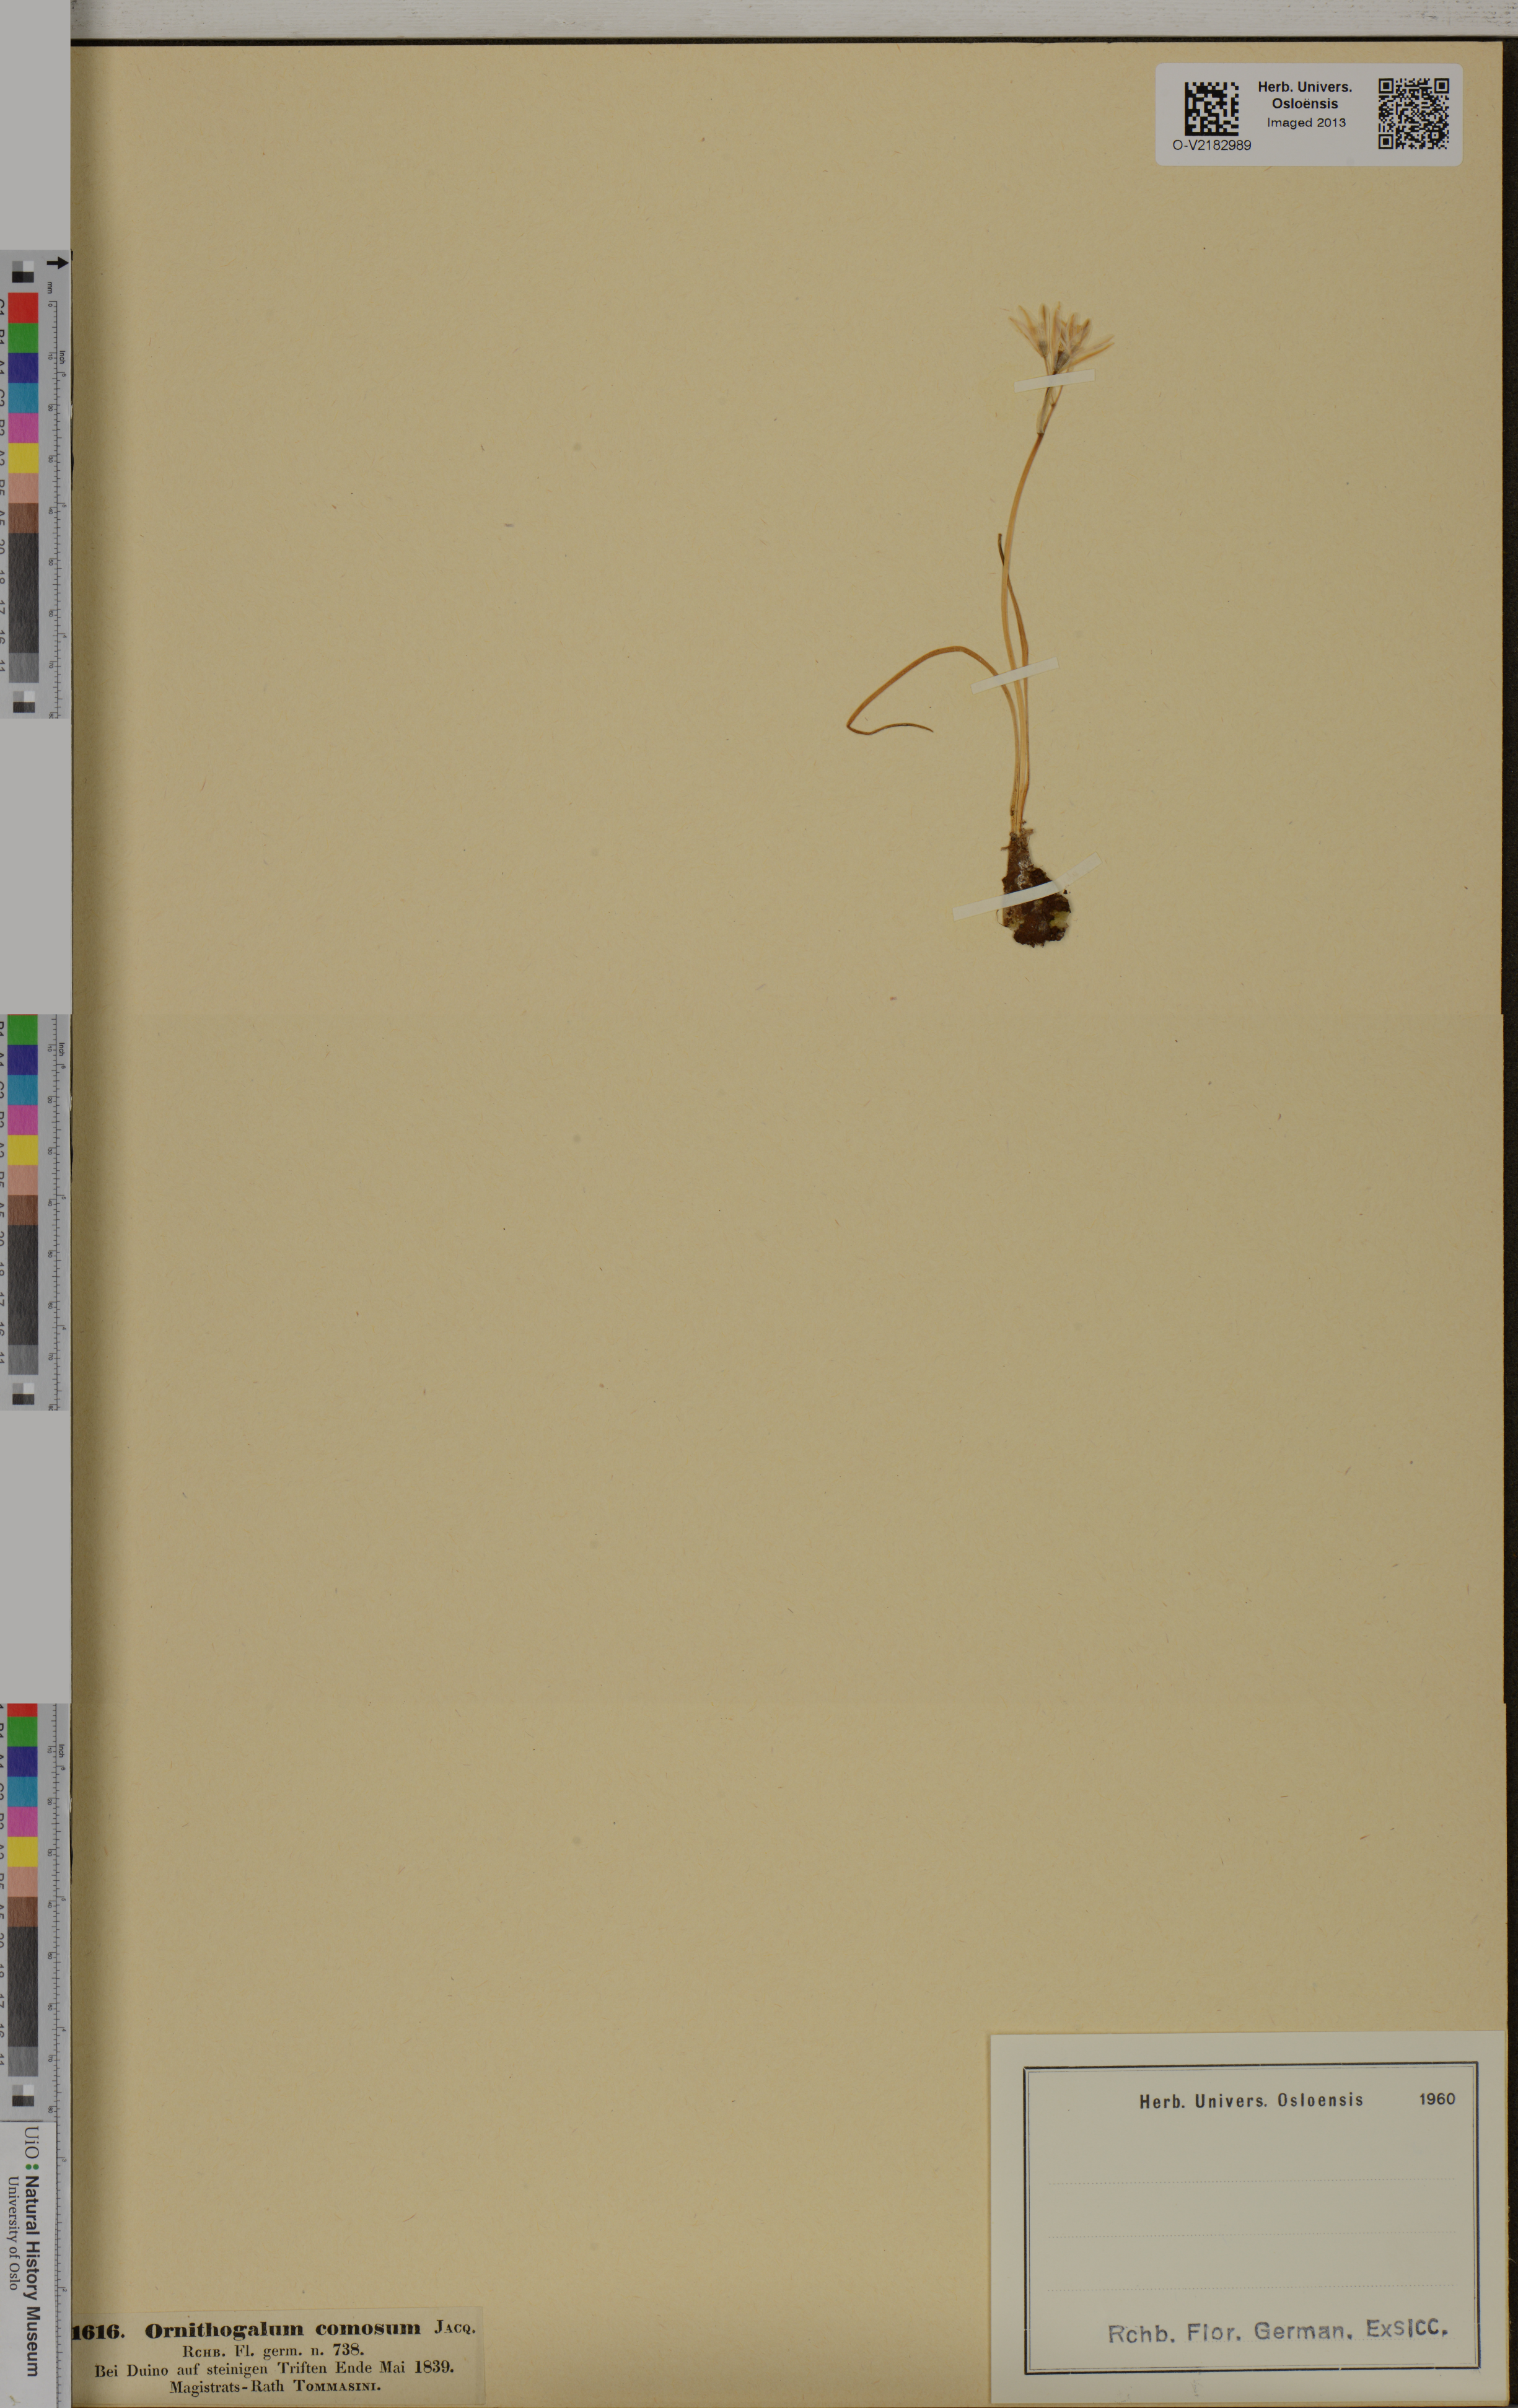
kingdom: Plantae
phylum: Tracheophyta
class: Liliopsida
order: Asparagales
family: Asparagaceae
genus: Ornithogalum
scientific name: Ornithogalum comosum
